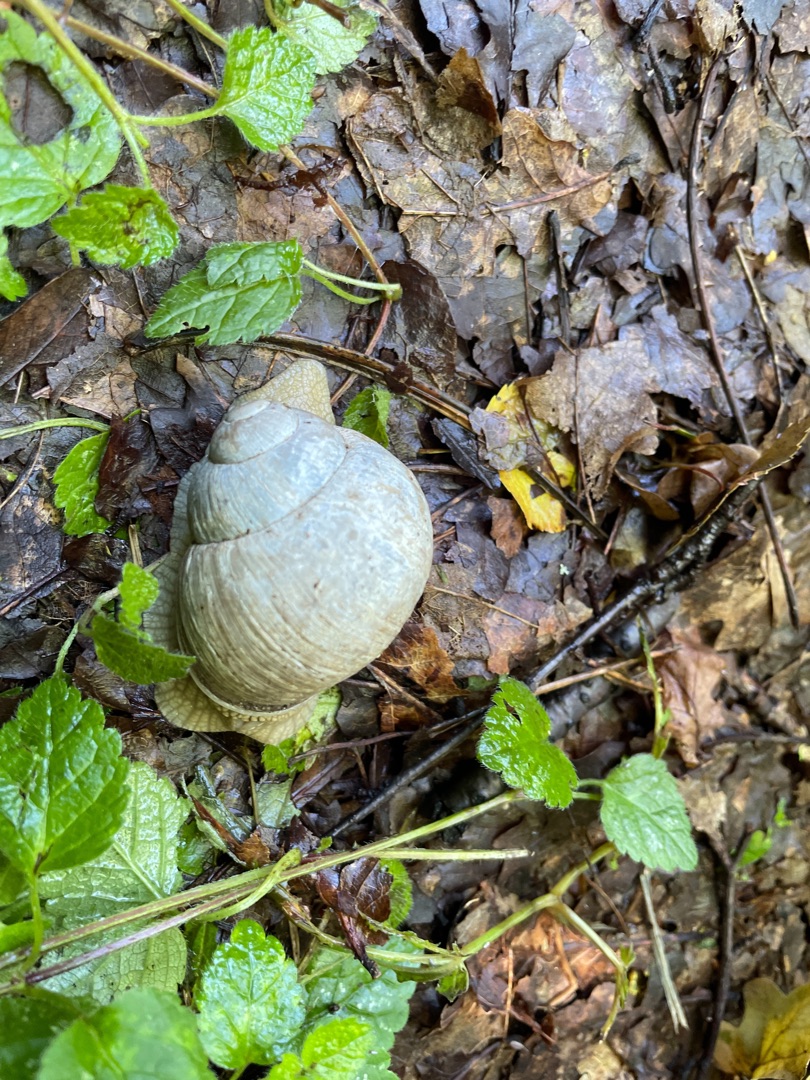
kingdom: Animalia
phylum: Mollusca
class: Gastropoda
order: Stylommatophora
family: Helicidae
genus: Helix
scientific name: Helix pomatia
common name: Vinbjergsnegl
